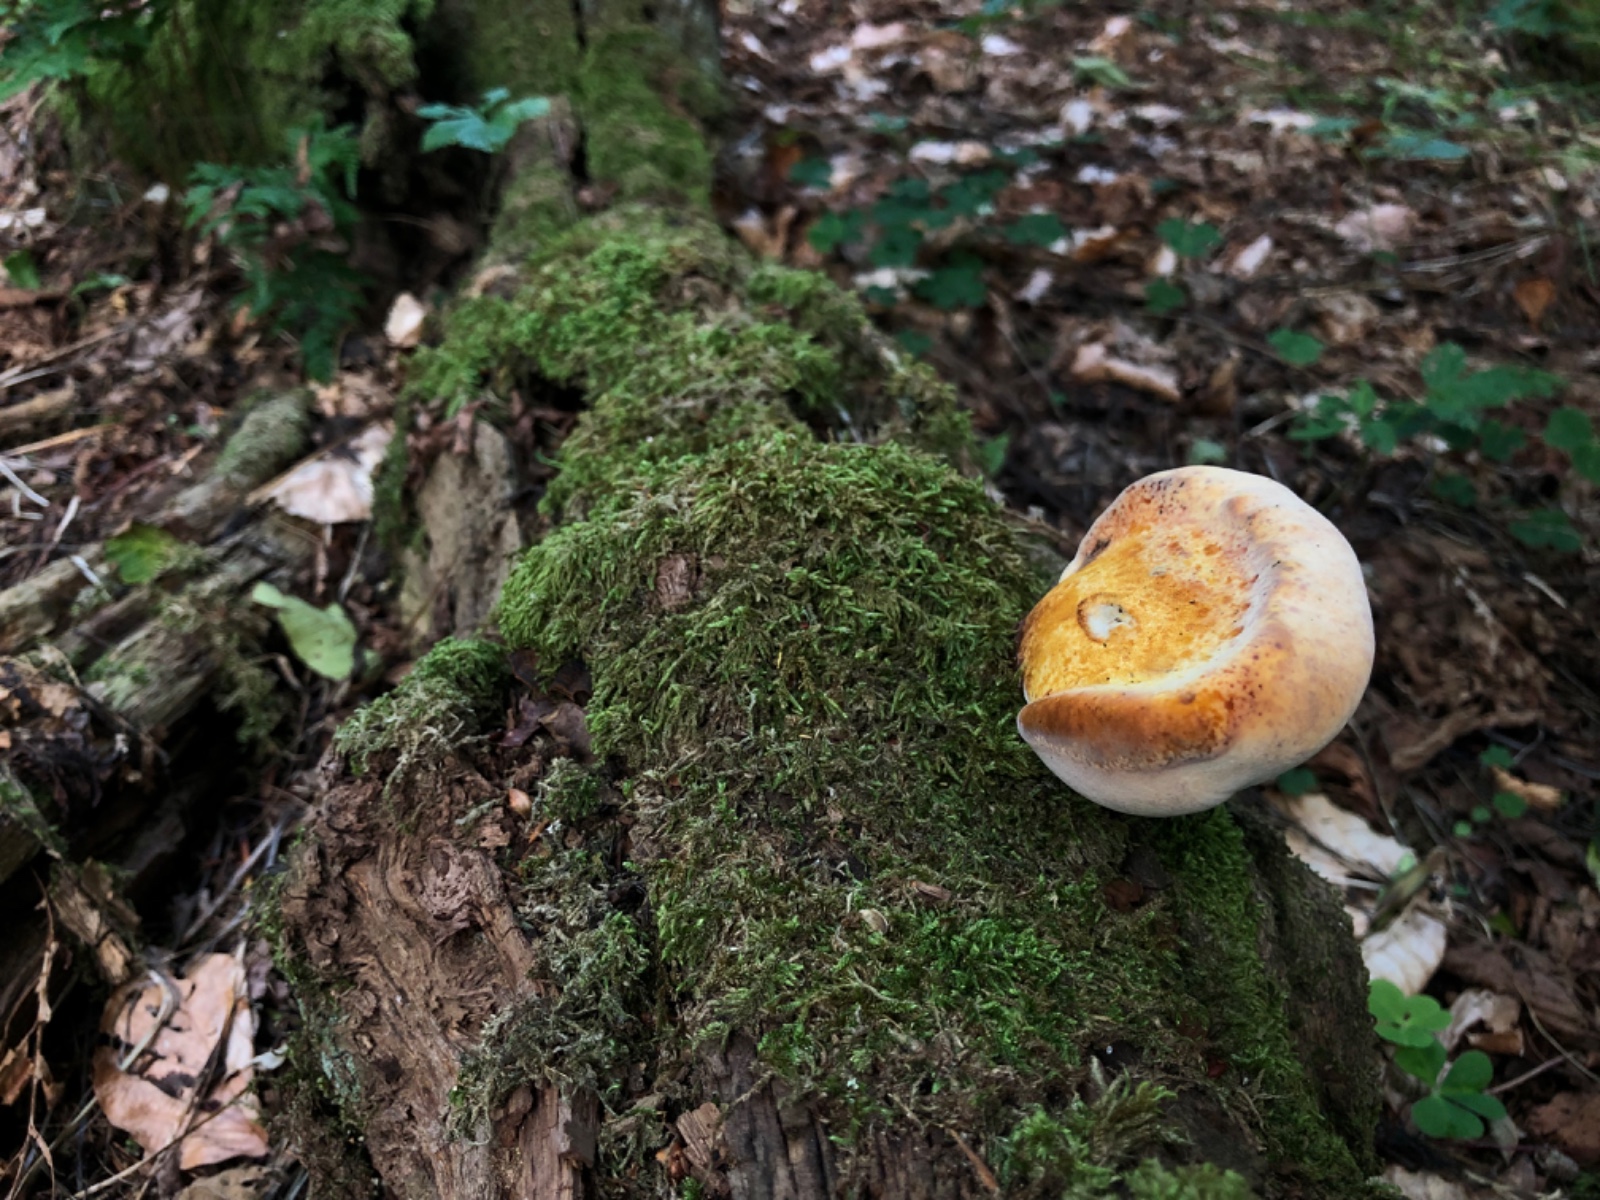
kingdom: Fungi
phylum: Basidiomycota
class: Agaricomycetes
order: Polyporales
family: Fomitopsidaceae
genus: Buglossoporus
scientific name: Buglossoporus quercinus
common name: egetunge
